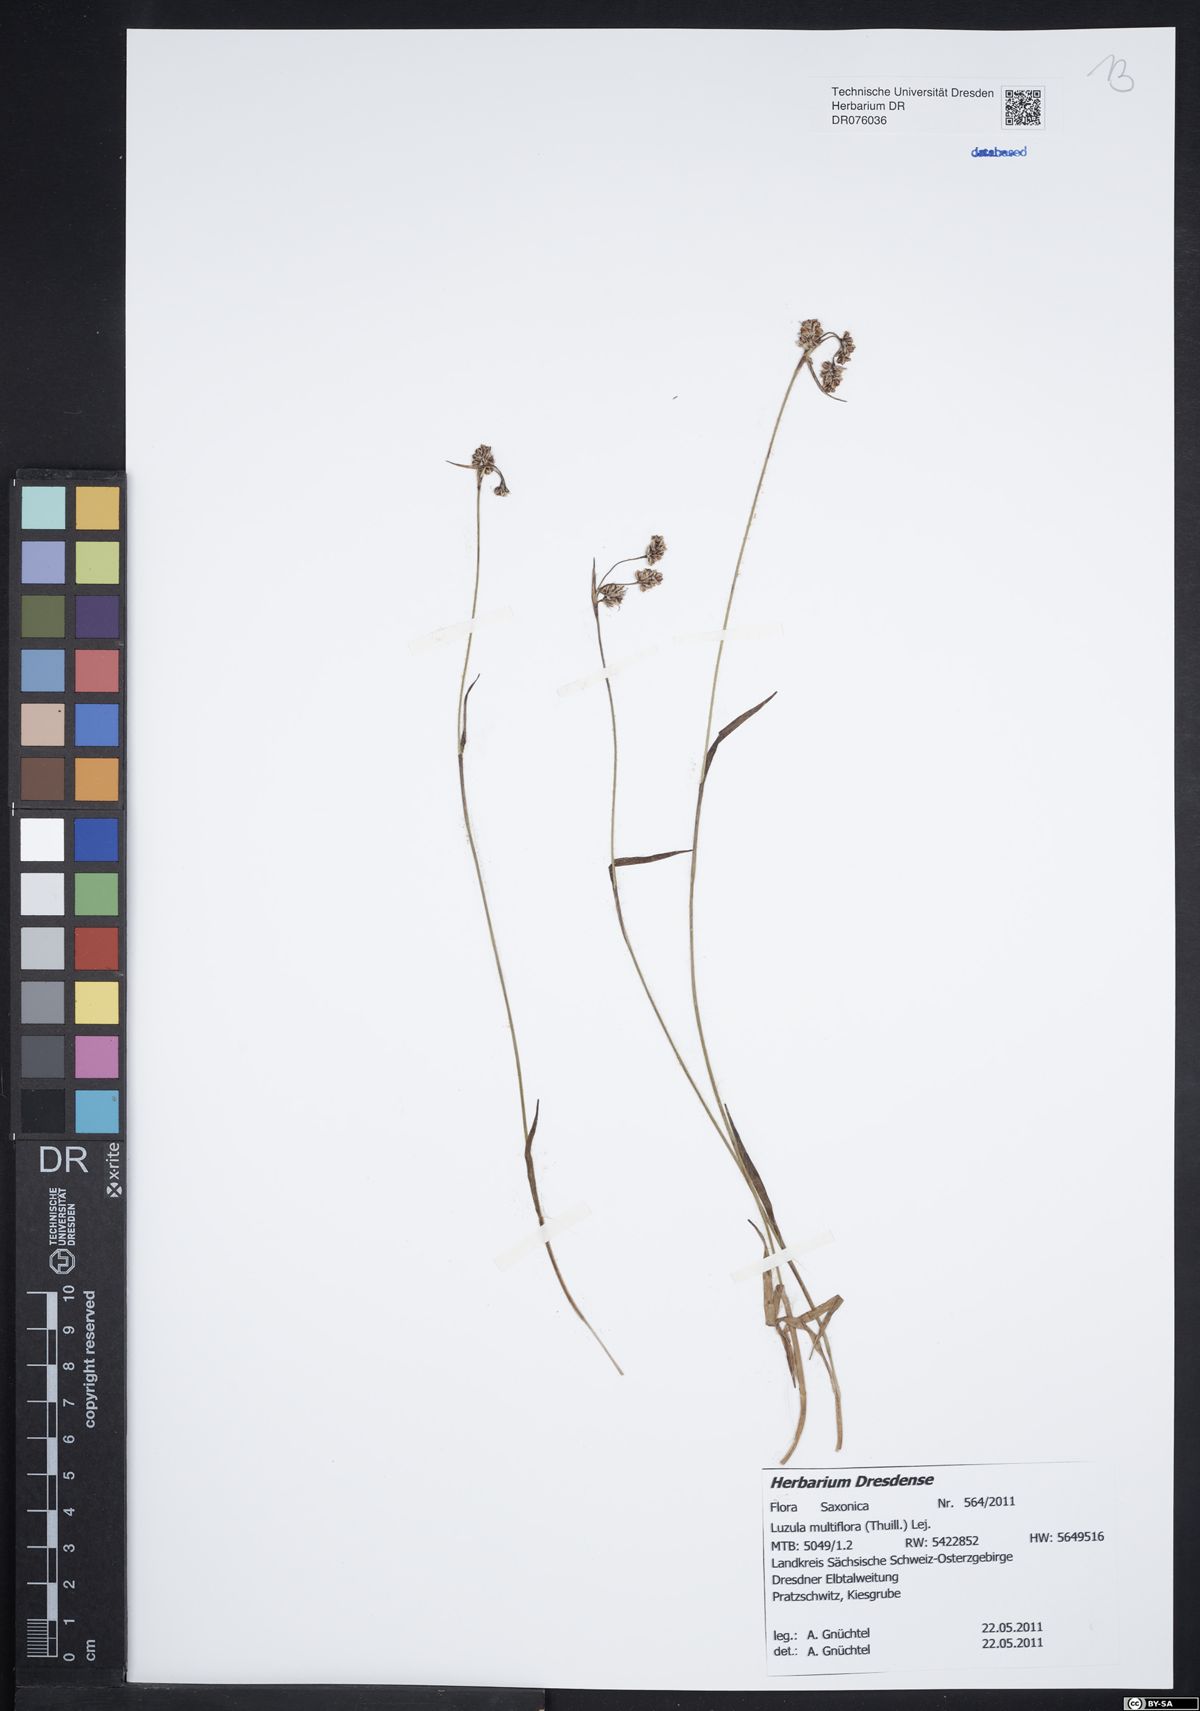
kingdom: Plantae
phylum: Tracheophyta
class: Liliopsida
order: Poales
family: Juncaceae
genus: Luzula
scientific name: Luzula multiflora
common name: Heath wood-rush
